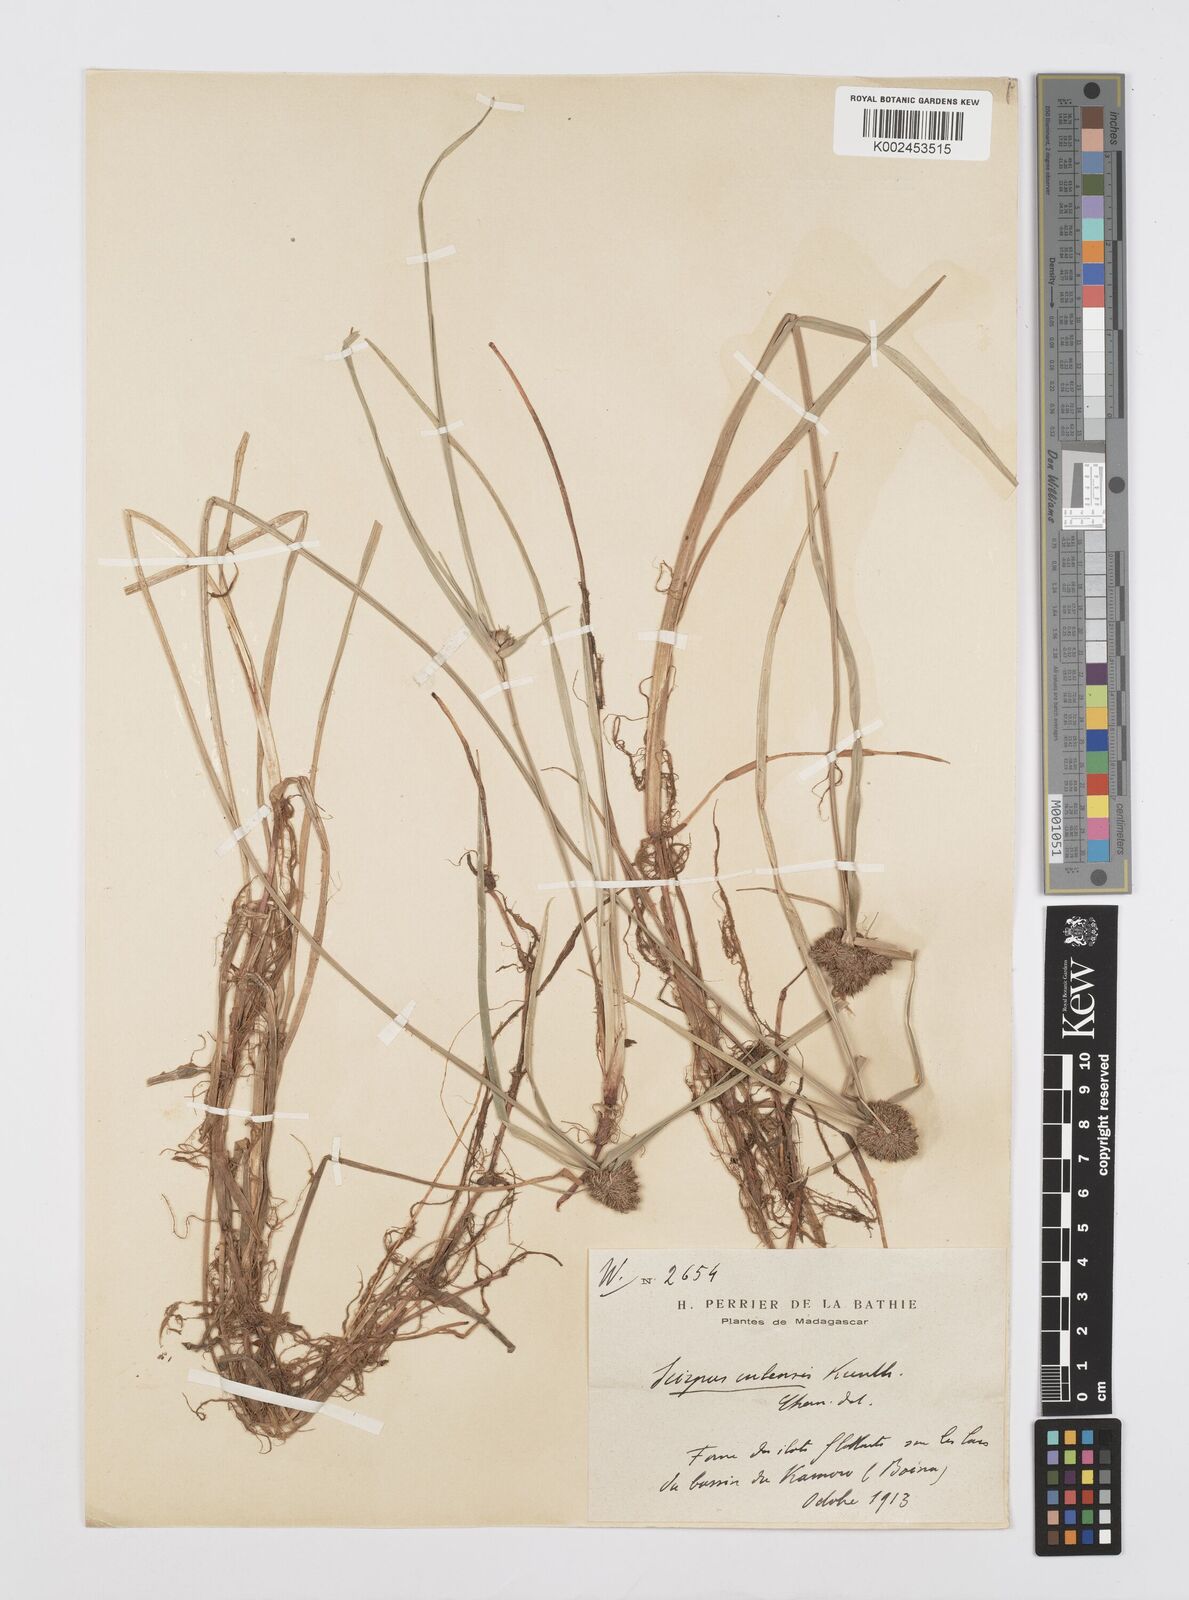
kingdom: Plantae
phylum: Tracheophyta
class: Liliopsida
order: Poales
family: Cyperaceae
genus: Cyperus
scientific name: Cyperus elegans
